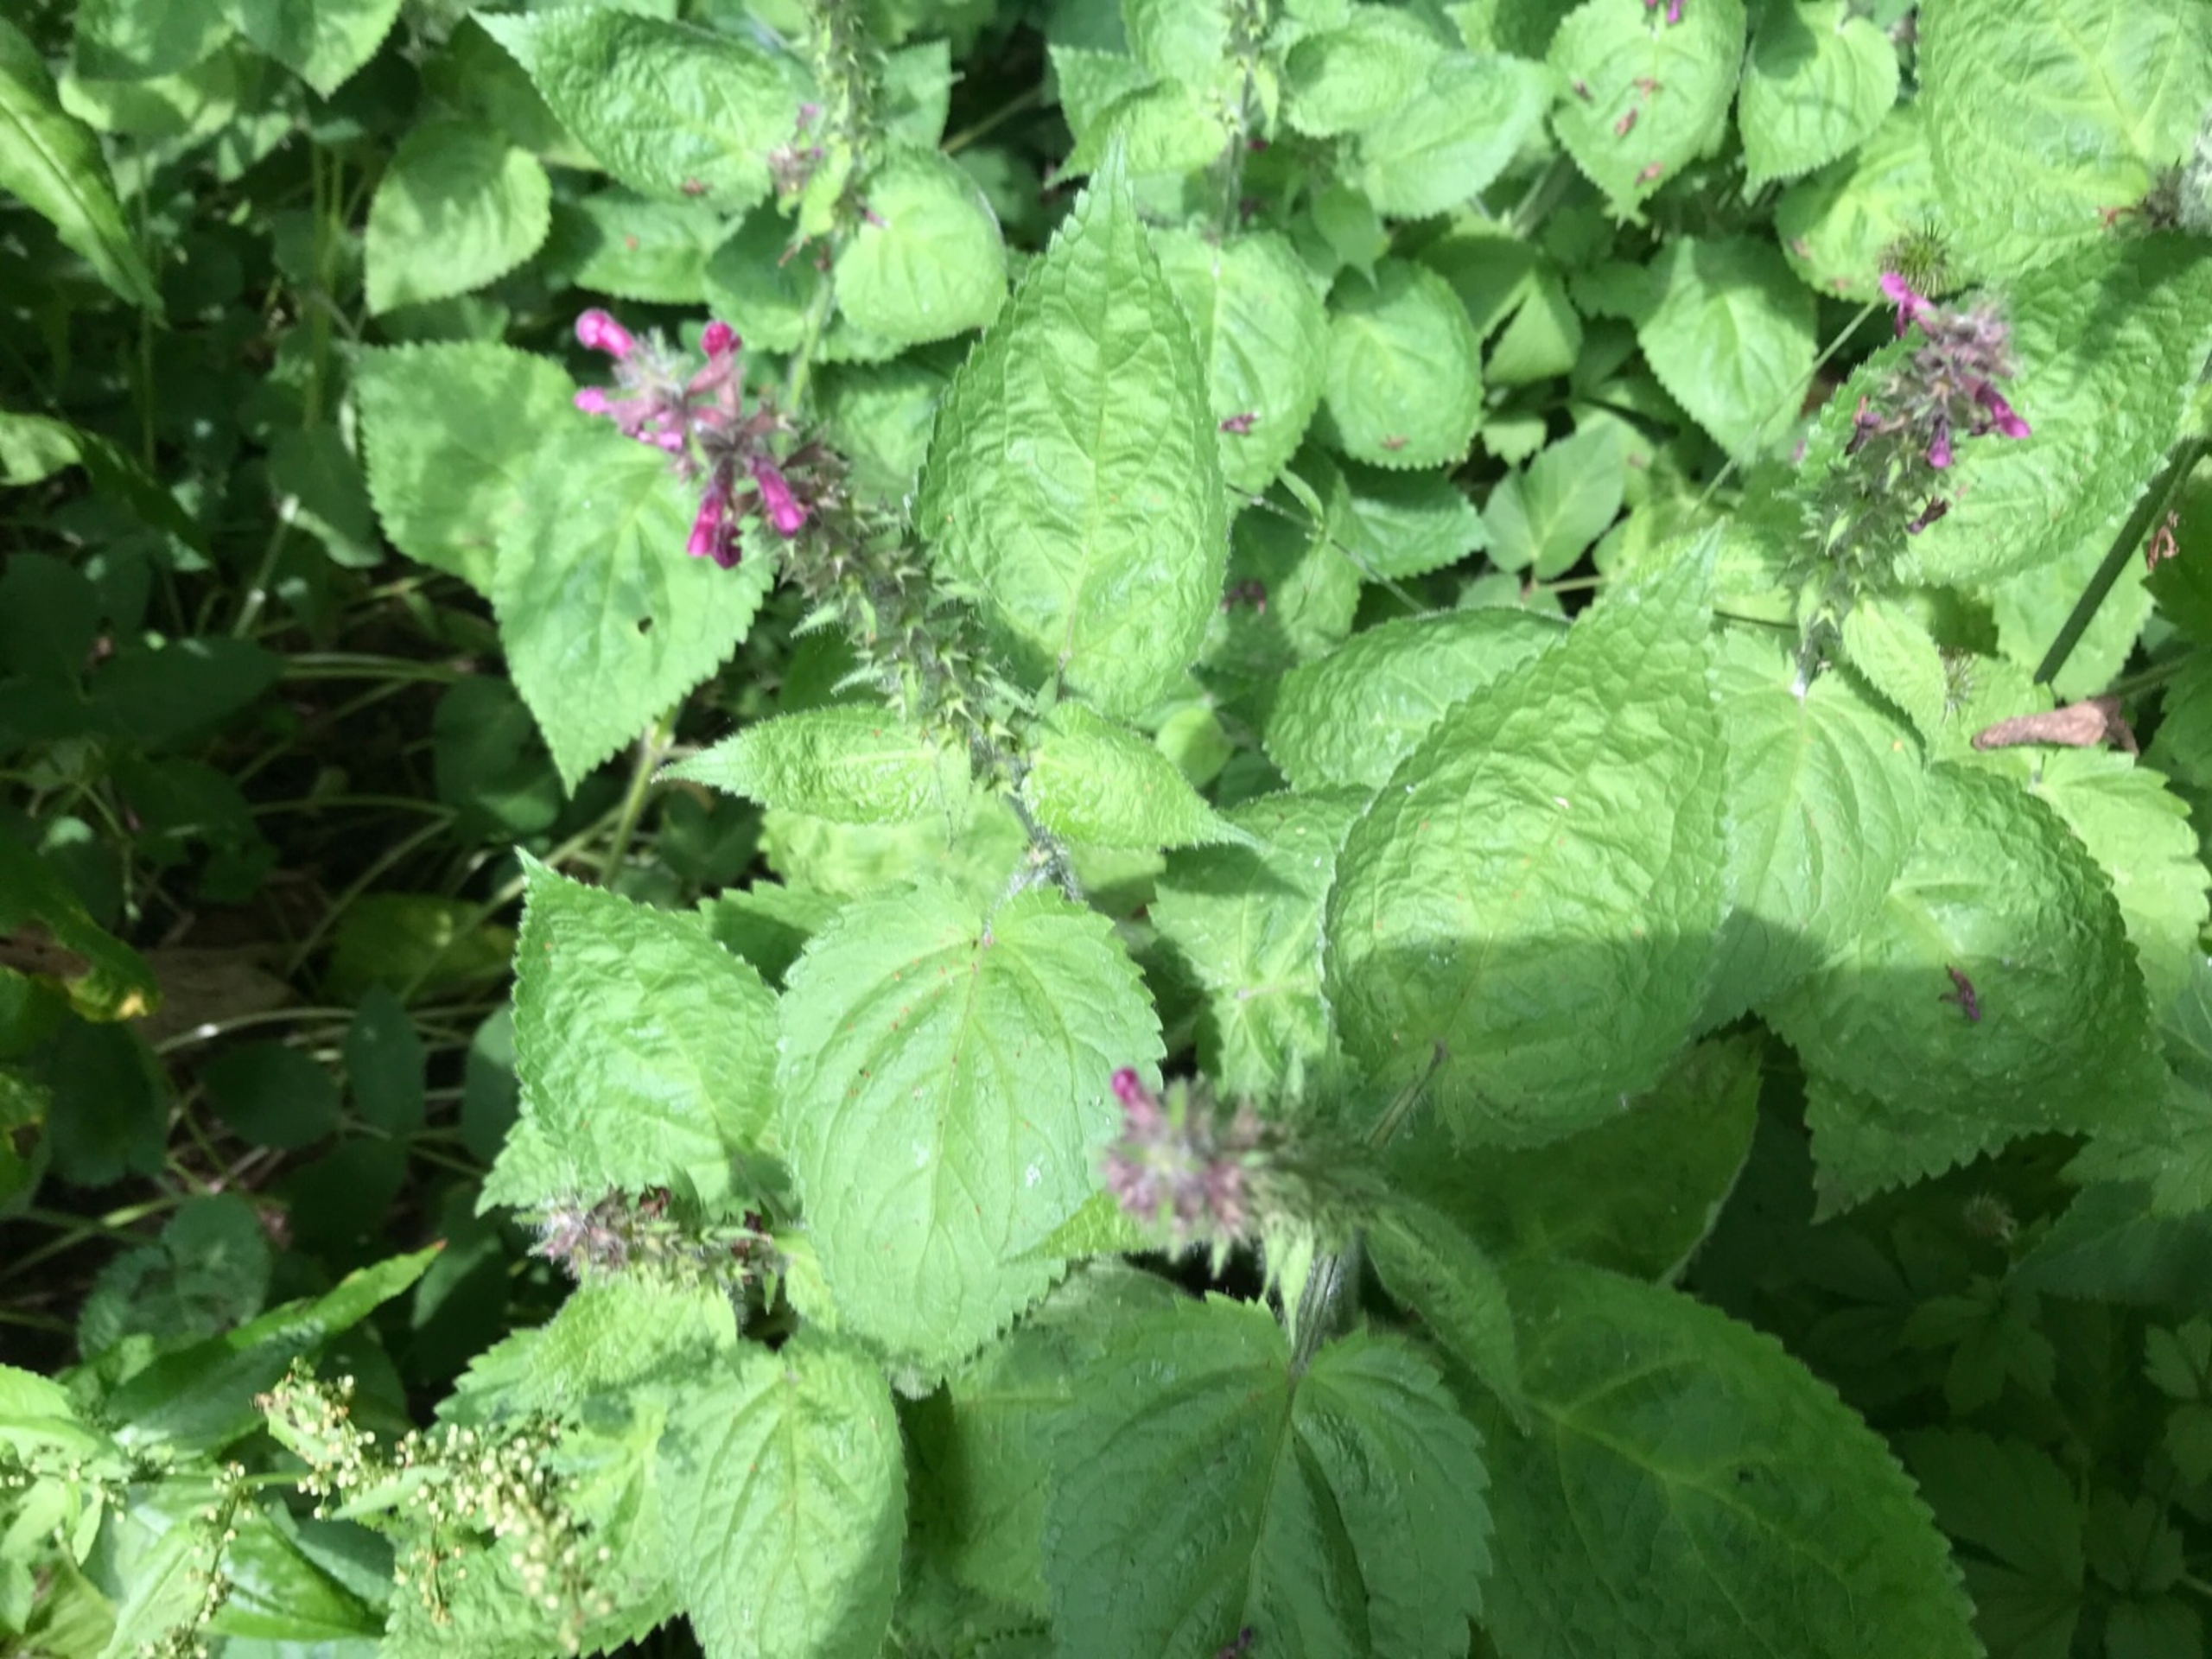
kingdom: Plantae
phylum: Tracheophyta
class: Magnoliopsida
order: Lamiales
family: Lamiaceae
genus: Stachys
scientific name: Stachys sylvatica
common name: Skov-galtetand
